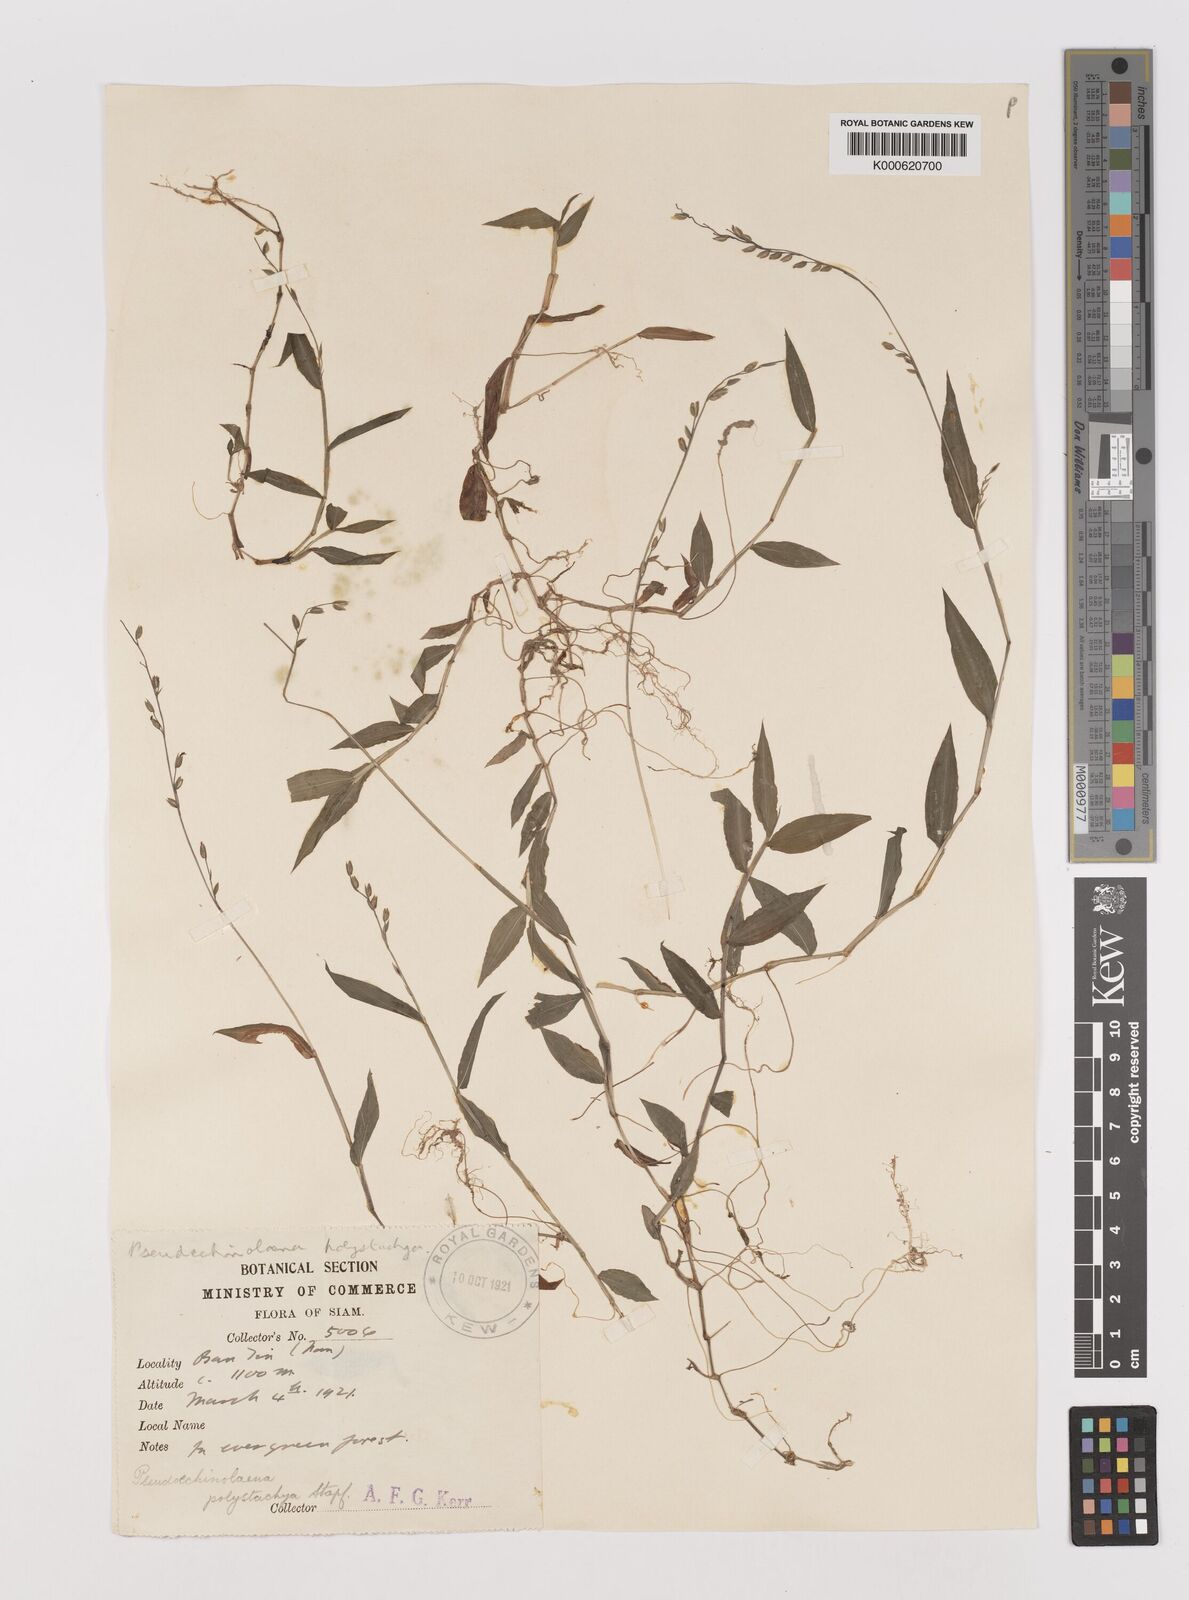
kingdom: Plantae
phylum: Tracheophyta
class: Liliopsida
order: Poales
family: Poaceae
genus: Pseudechinolaena
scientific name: Pseudechinolaena polystachya
